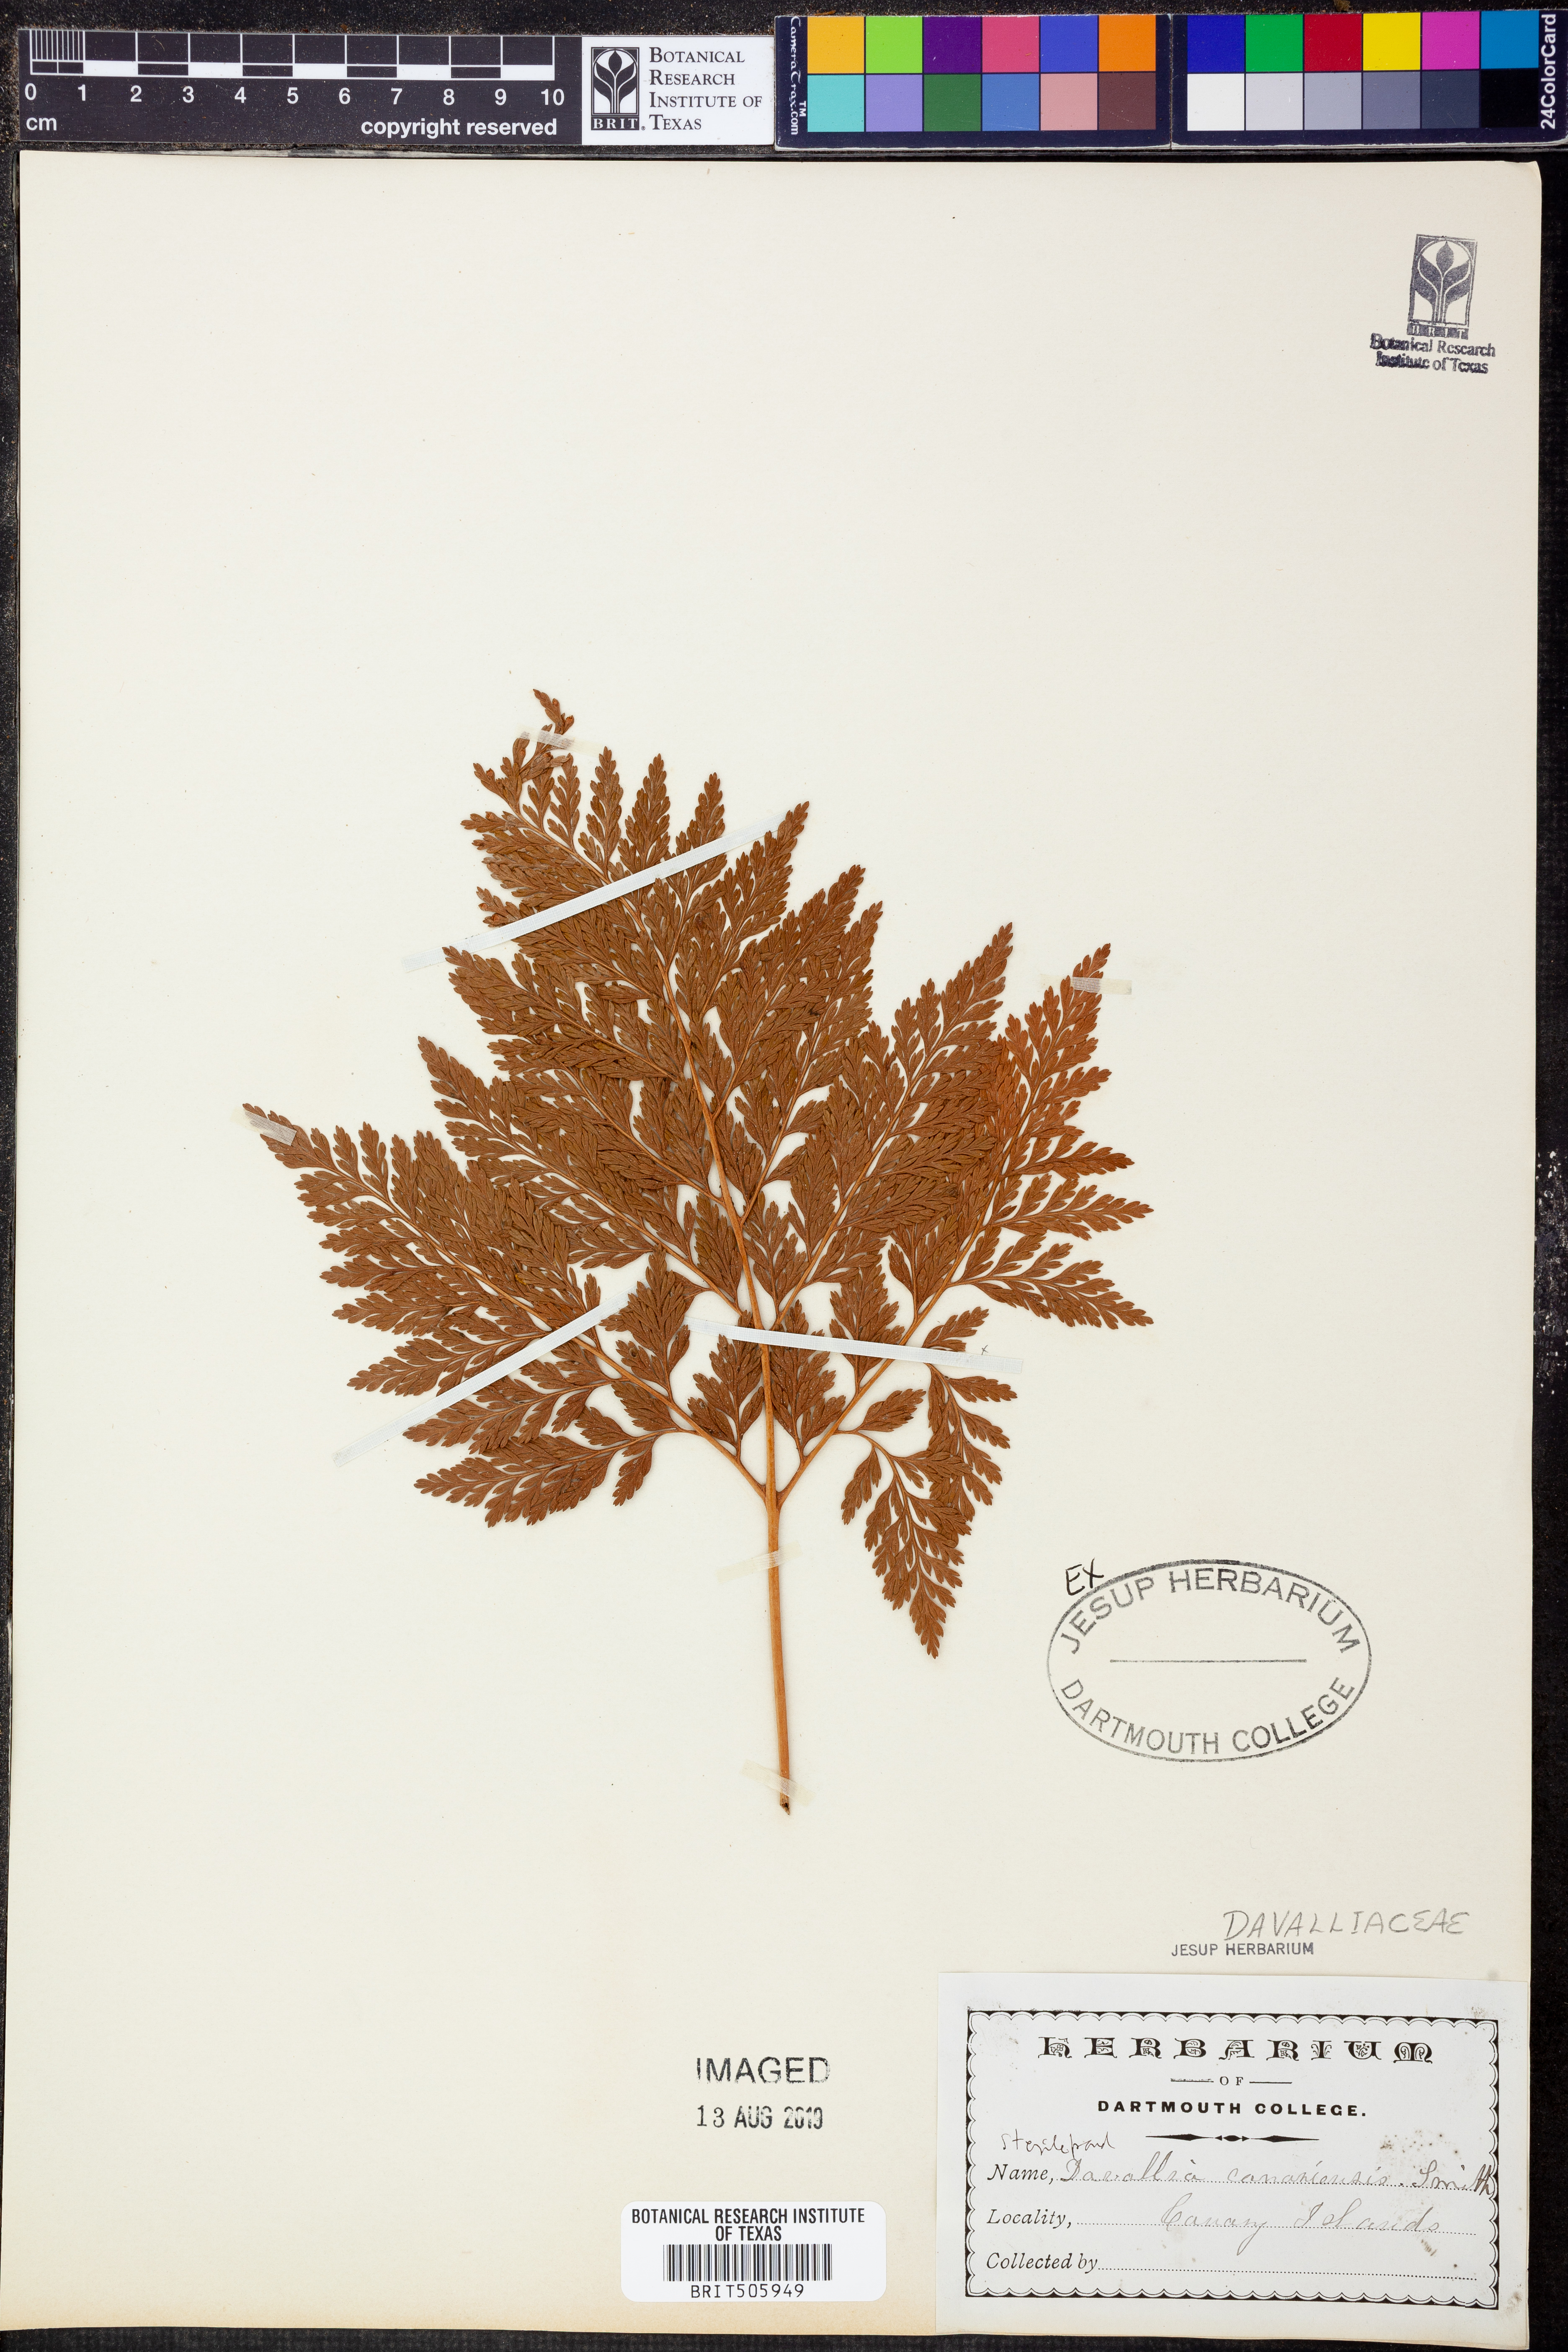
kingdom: Plantae
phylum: Tracheophyta
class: Polypodiopsida
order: Polypodiales
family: Davalliaceae
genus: Davallia
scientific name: Davallia canariensis
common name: Hare's-foot fern
